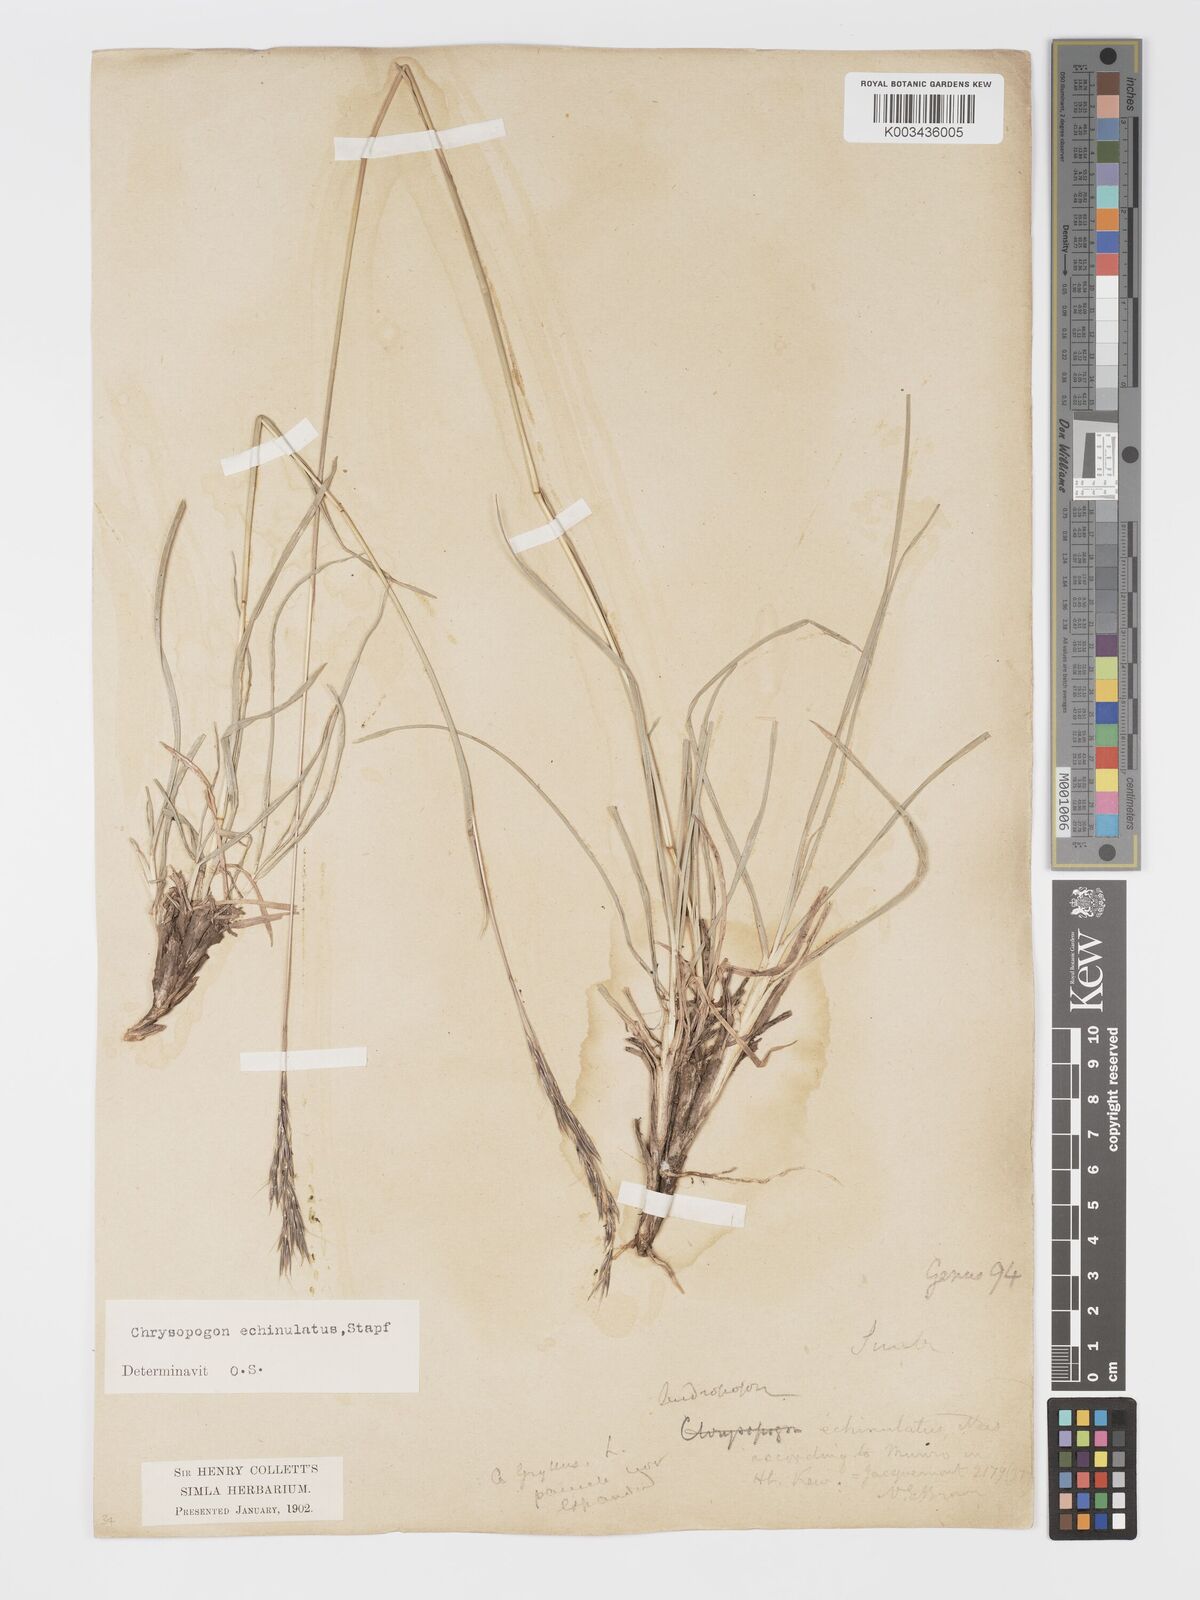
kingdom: Plantae
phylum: Tracheophyta
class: Liliopsida
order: Poales
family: Poaceae
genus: Chrysopogon
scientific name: Chrysopogon gryllus
